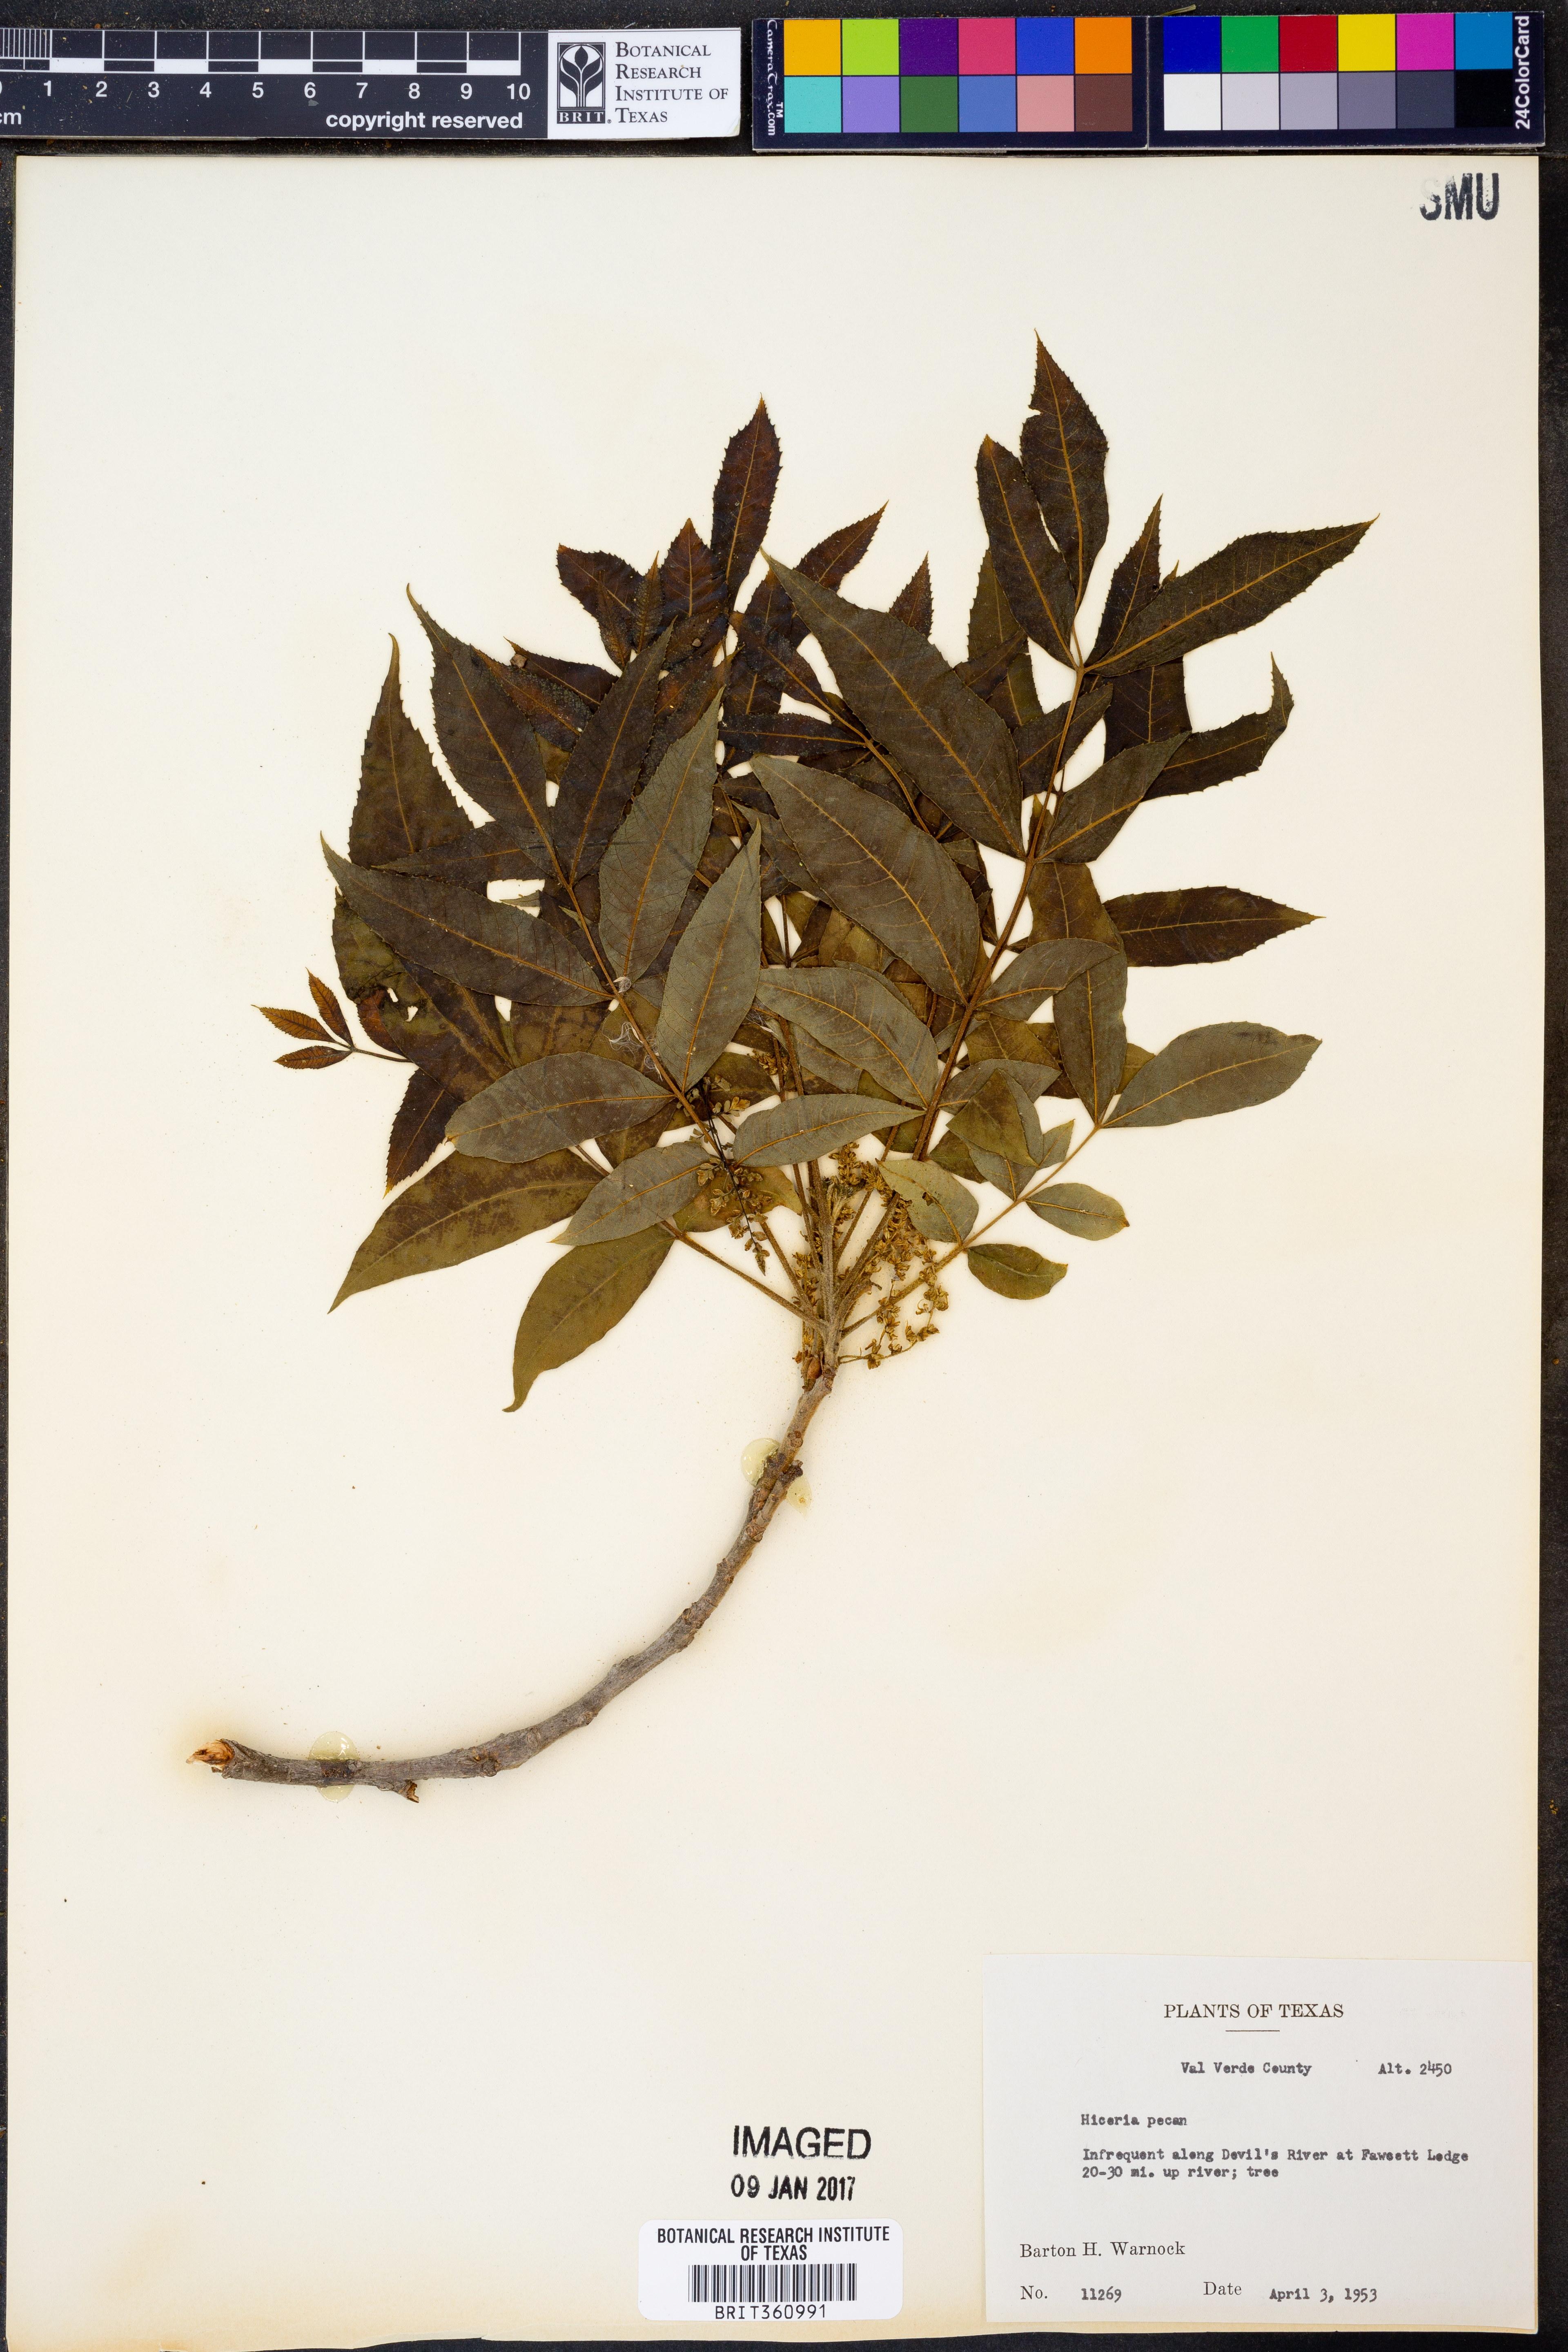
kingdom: Plantae
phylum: Tracheophyta
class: Magnoliopsida
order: Fagales
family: Juglandaceae
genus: Carya
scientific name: Carya
